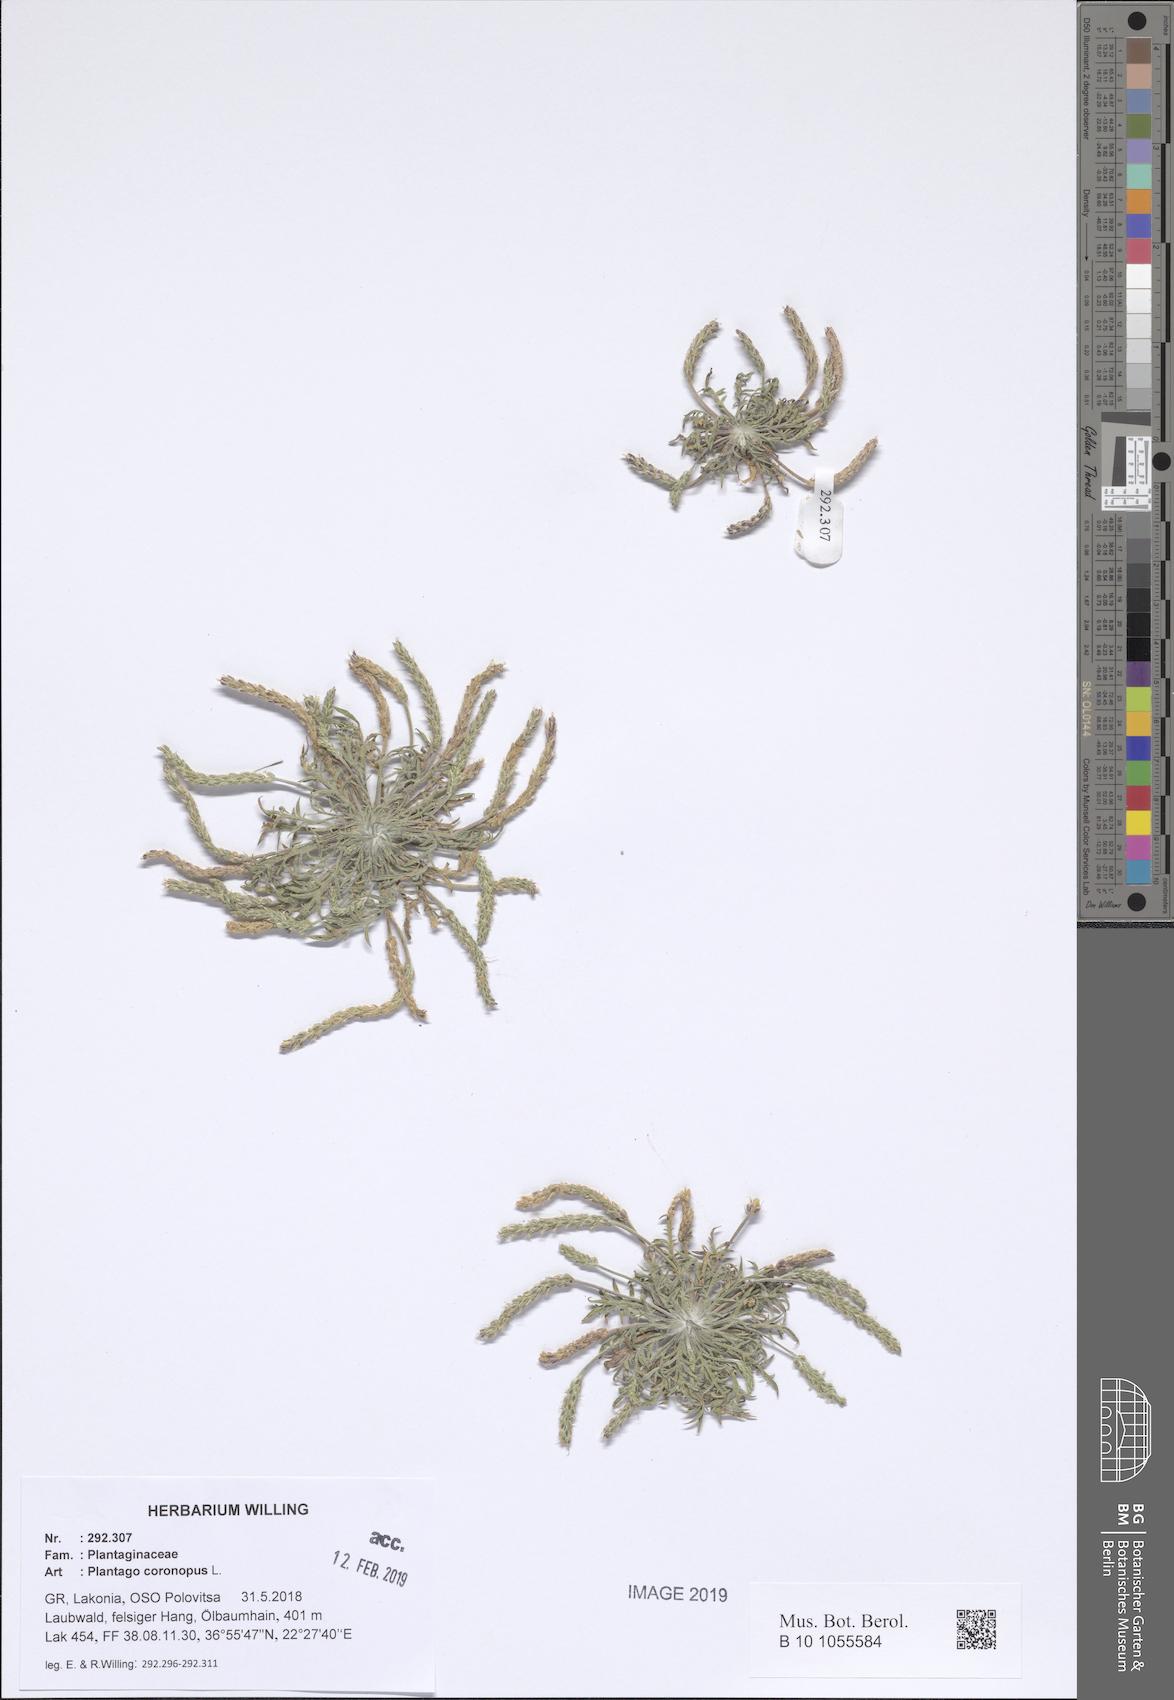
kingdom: Plantae
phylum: Tracheophyta
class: Magnoliopsida
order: Lamiales
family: Plantaginaceae
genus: Plantago
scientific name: Plantago coronopus
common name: Buck's-horn plantain
